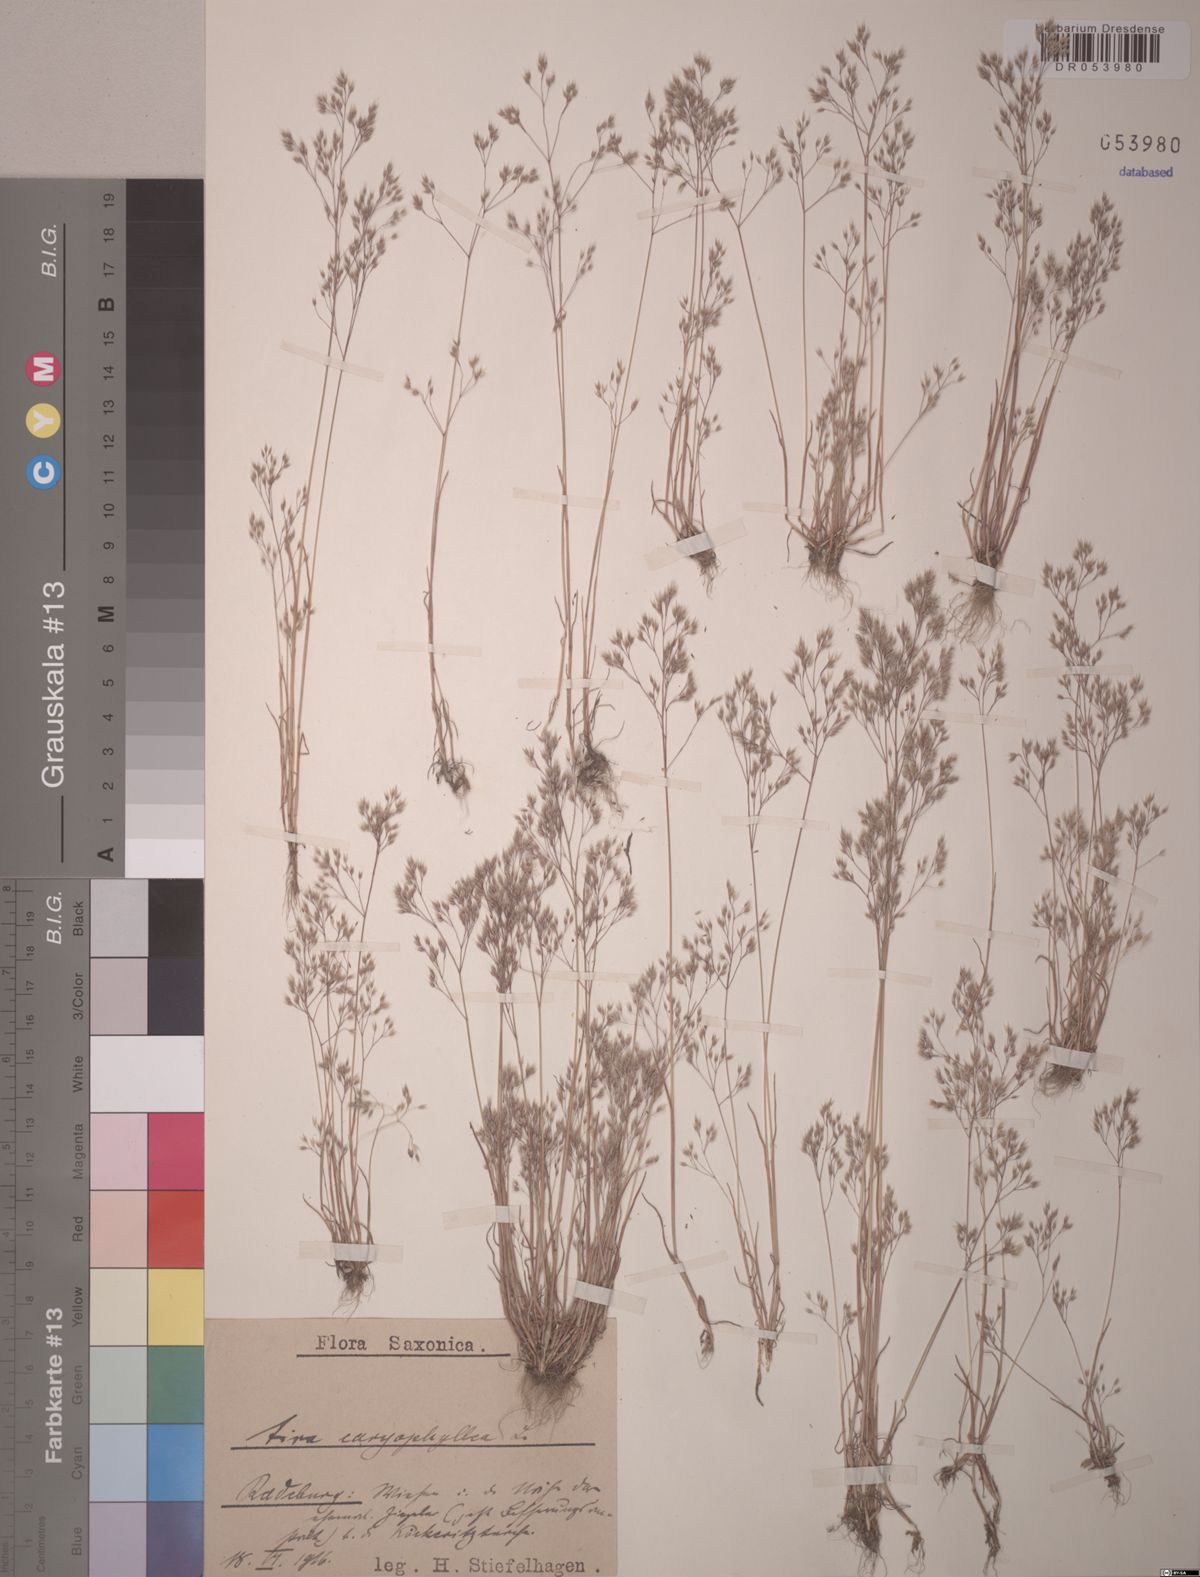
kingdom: Plantae
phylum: Tracheophyta
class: Liliopsida
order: Poales
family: Poaceae
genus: Aira
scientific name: Aira caryophyllea
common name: Silver hairgrass
